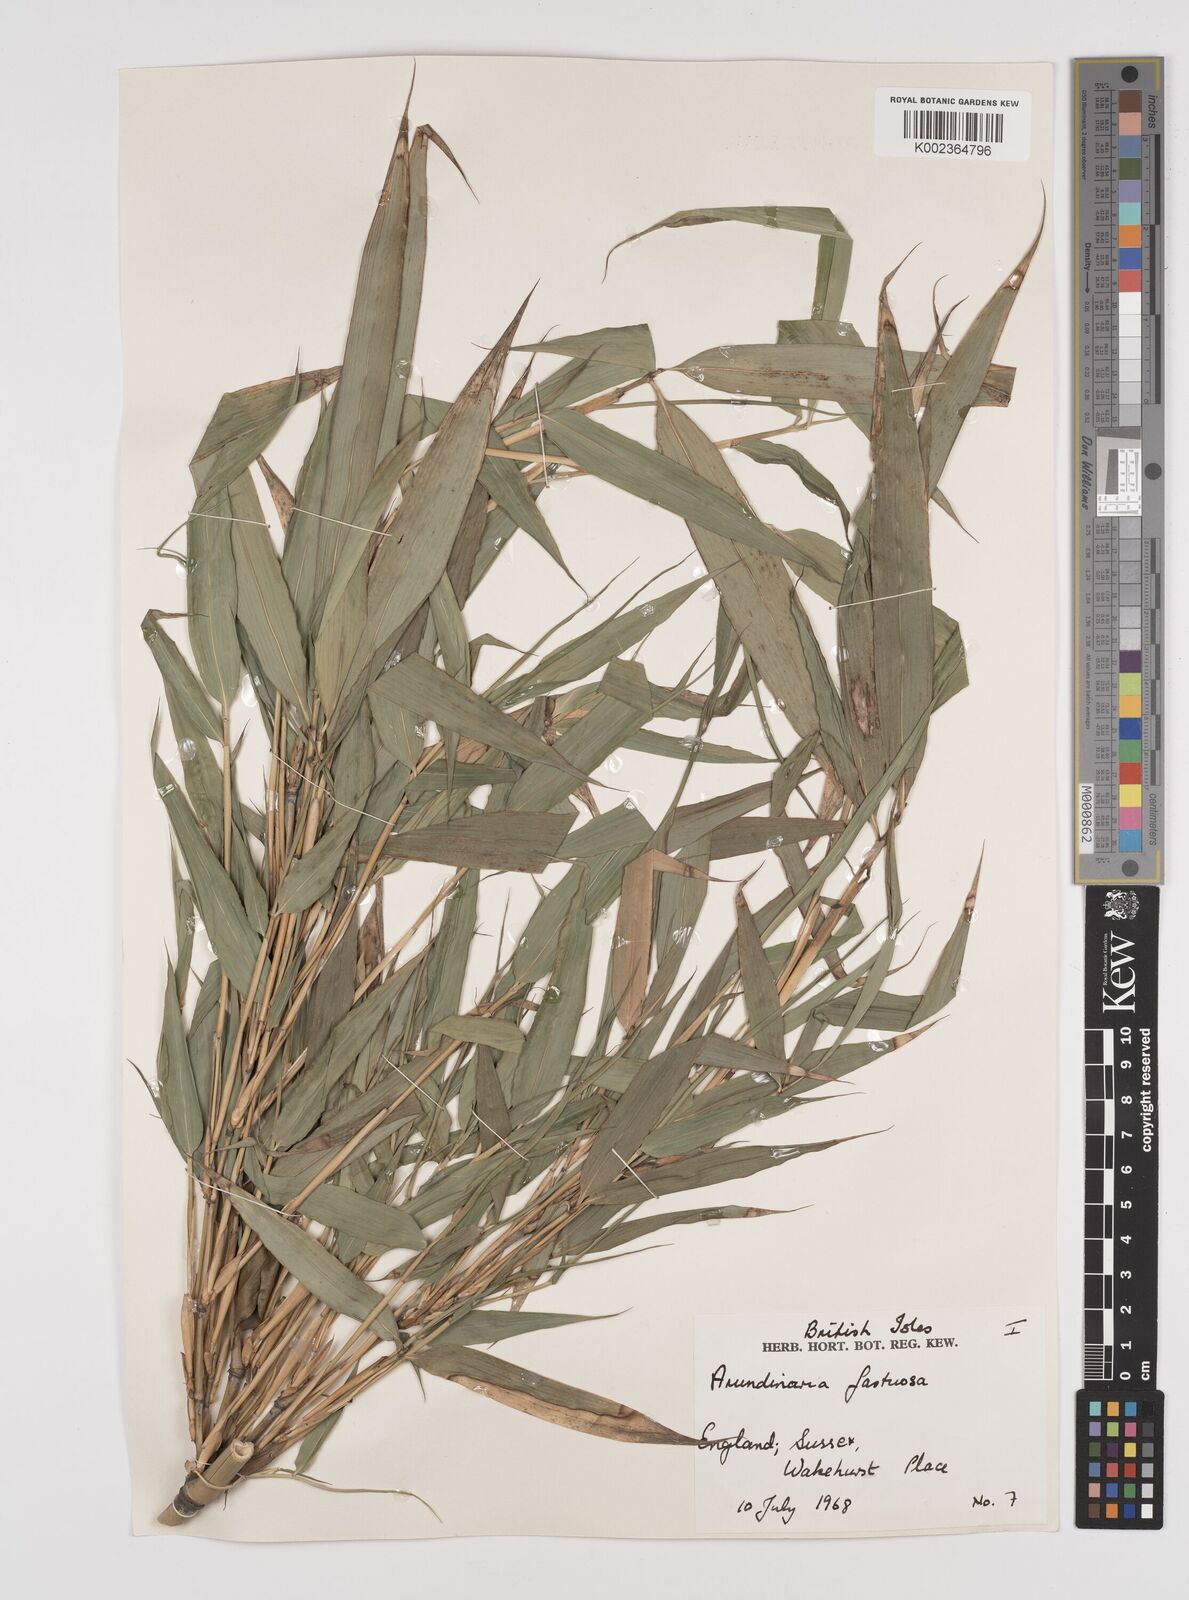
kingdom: Plantae
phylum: Tracheophyta
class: Liliopsida
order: Poales
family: Poaceae
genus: Semiarundinaria
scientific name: Semiarundinaria
